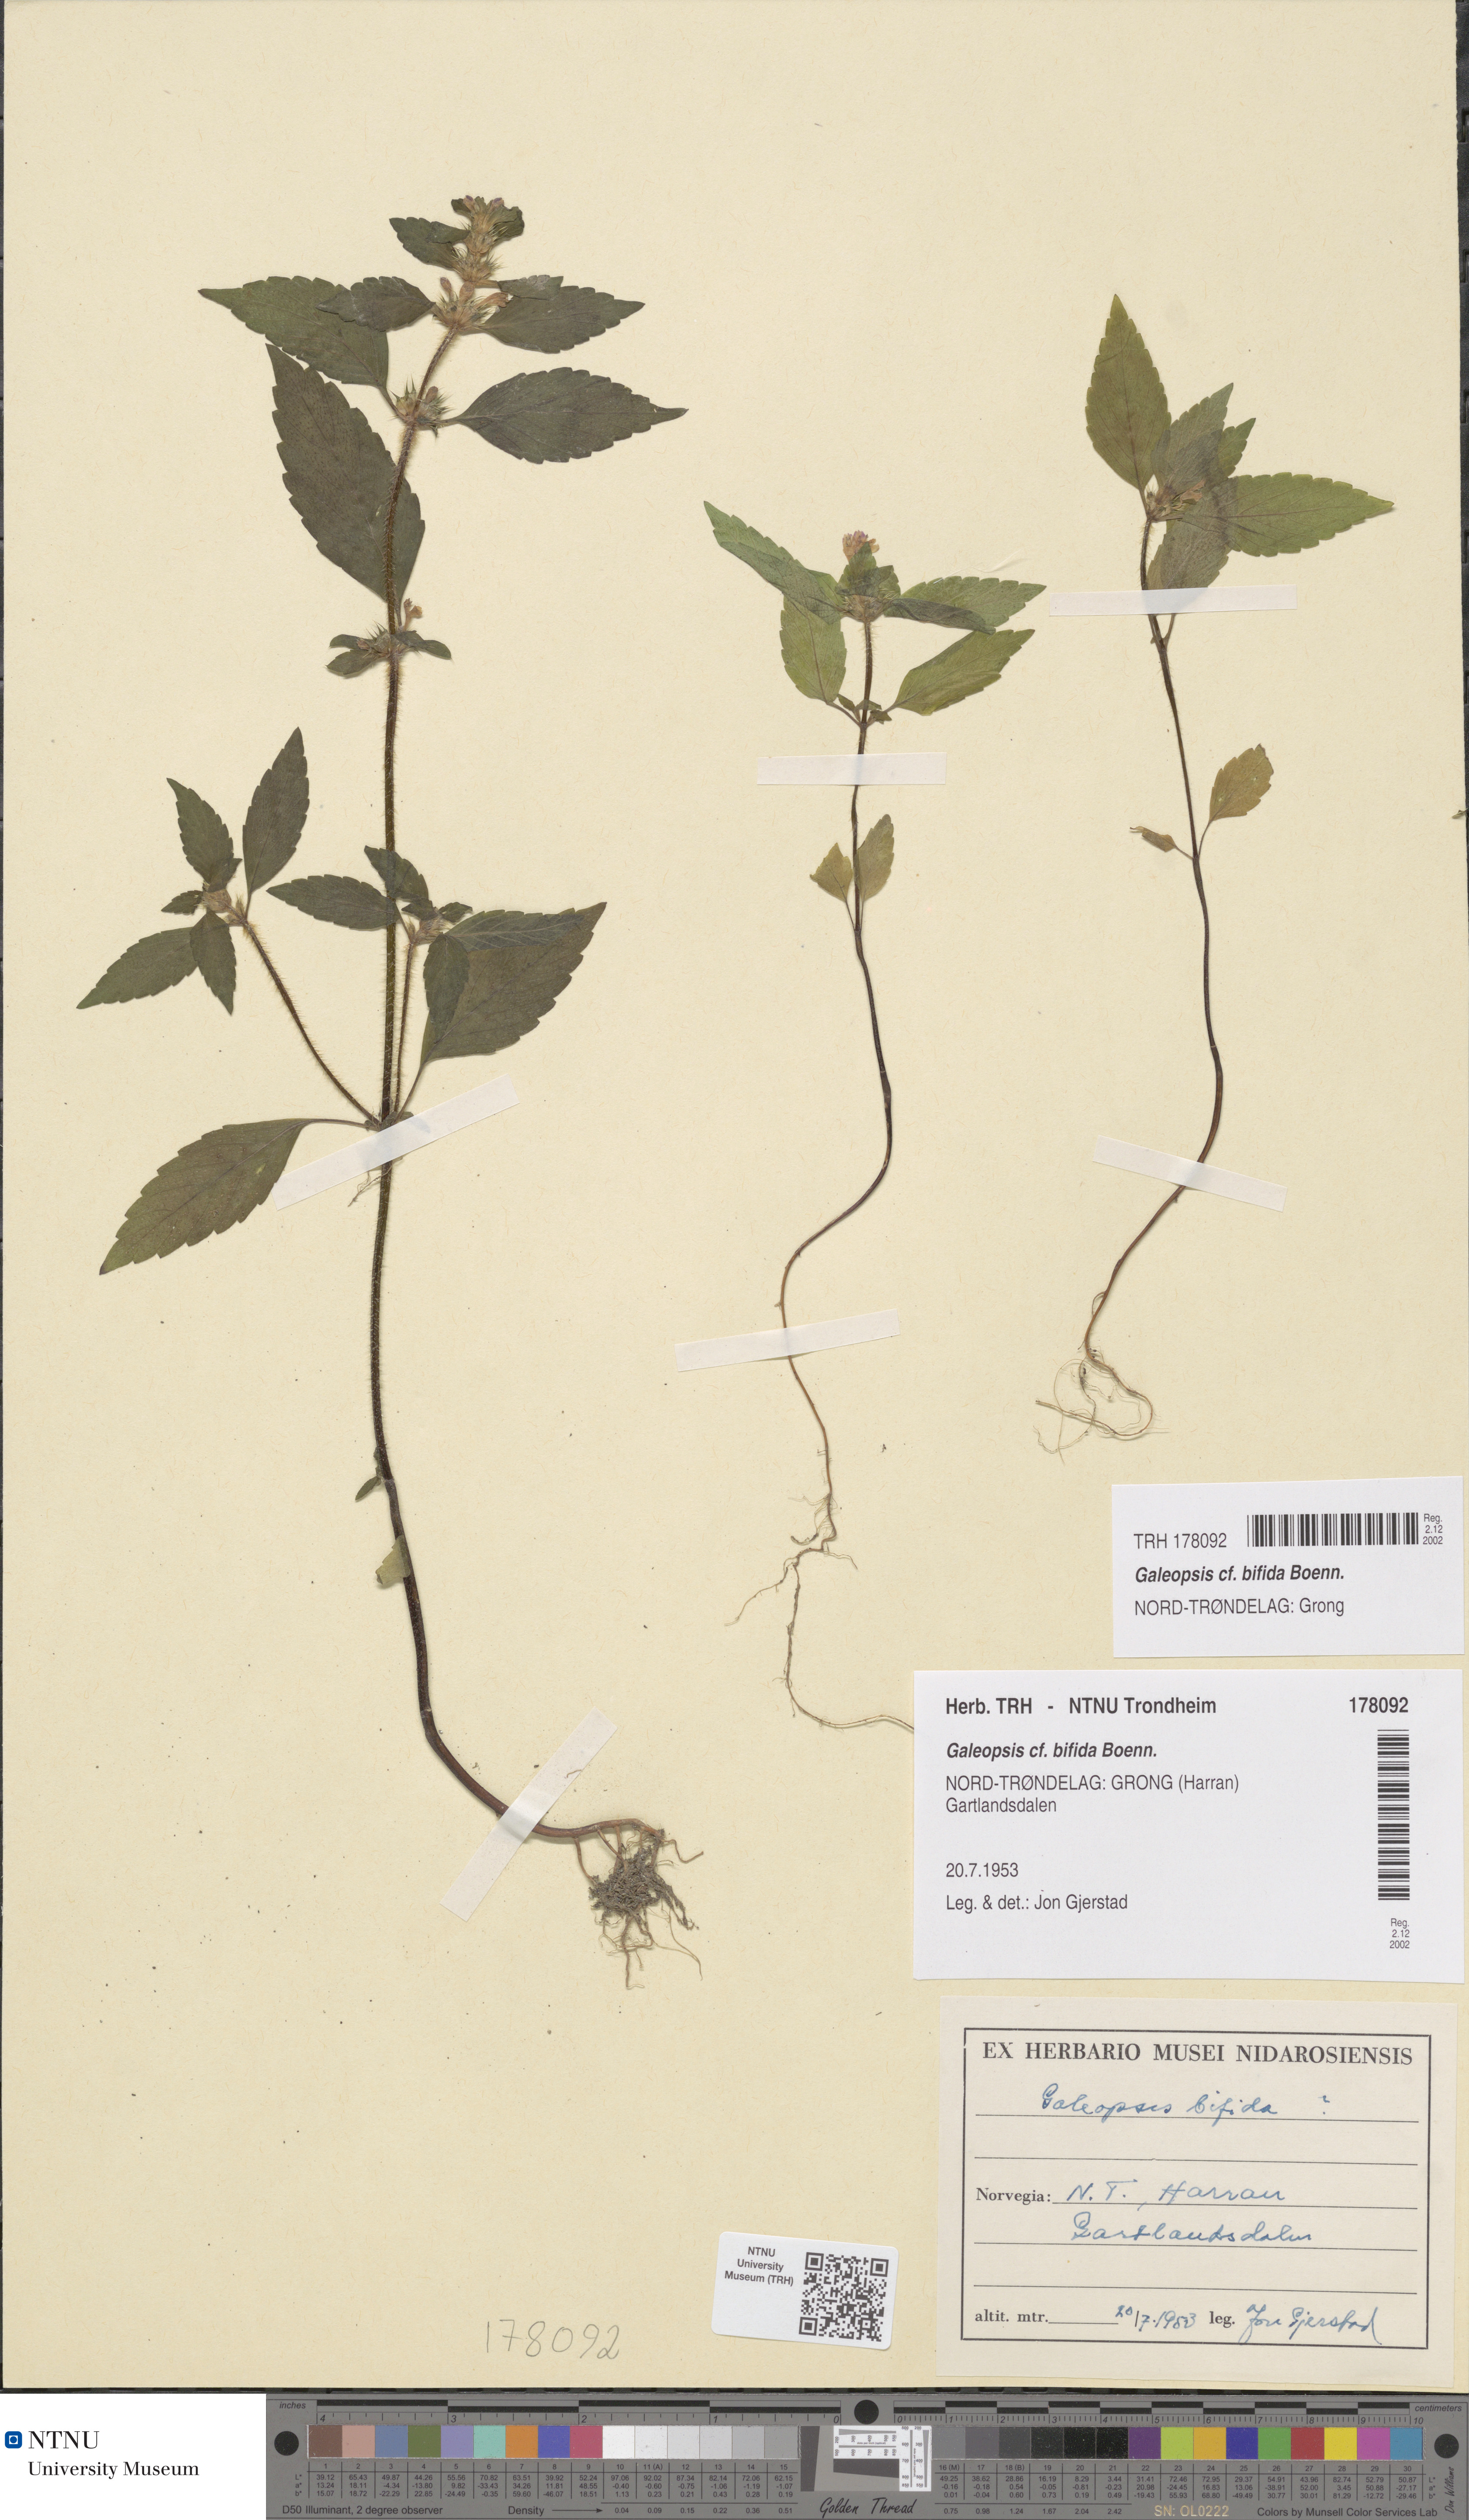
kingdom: Plantae
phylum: Tracheophyta
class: Magnoliopsida
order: Lamiales
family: Lamiaceae
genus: Galeopsis
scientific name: Galeopsis bifida
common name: Bifid hemp-nettle
